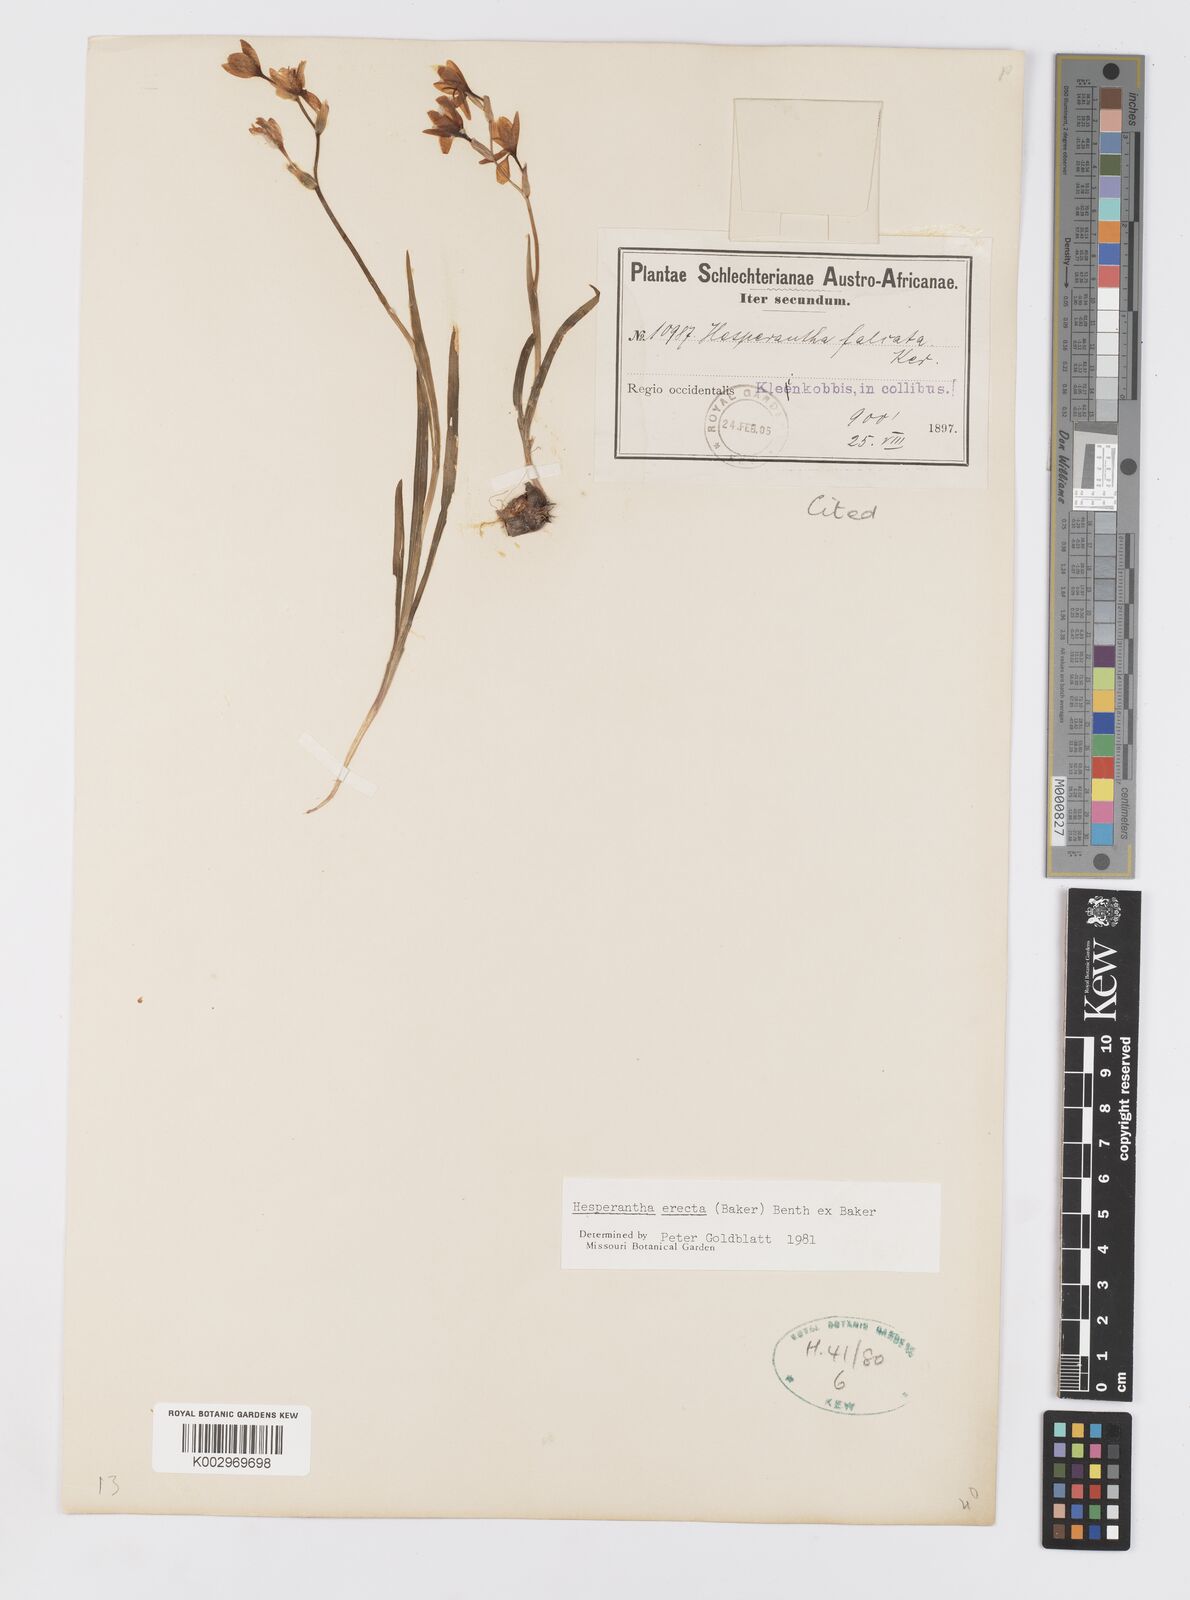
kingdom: Plantae
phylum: Tracheophyta
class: Liliopsida
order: Asparagales
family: Iridaceae
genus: Hesperantha
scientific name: Hesperantha erecta
